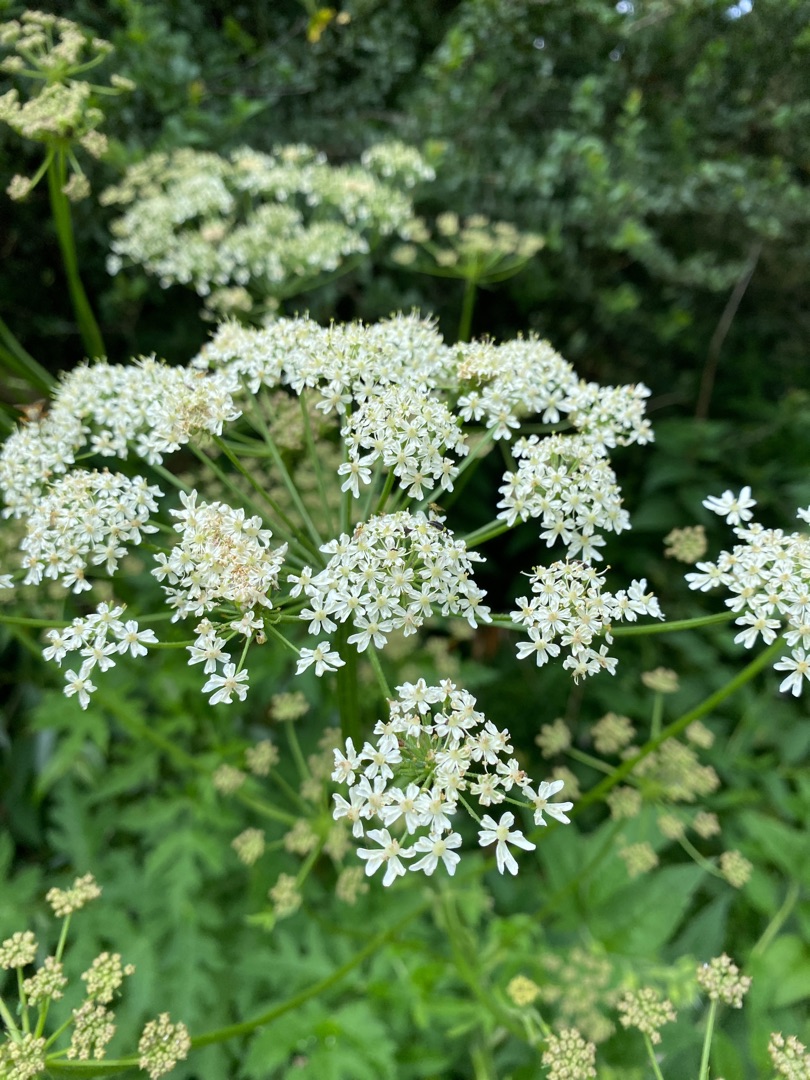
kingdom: Plantae
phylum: Tracheophyta
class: Magnoliopsida
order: Apiales
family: Apiaceae
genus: Heracleum
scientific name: Heracleum sphondylium
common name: Almindelig bjørneklo
